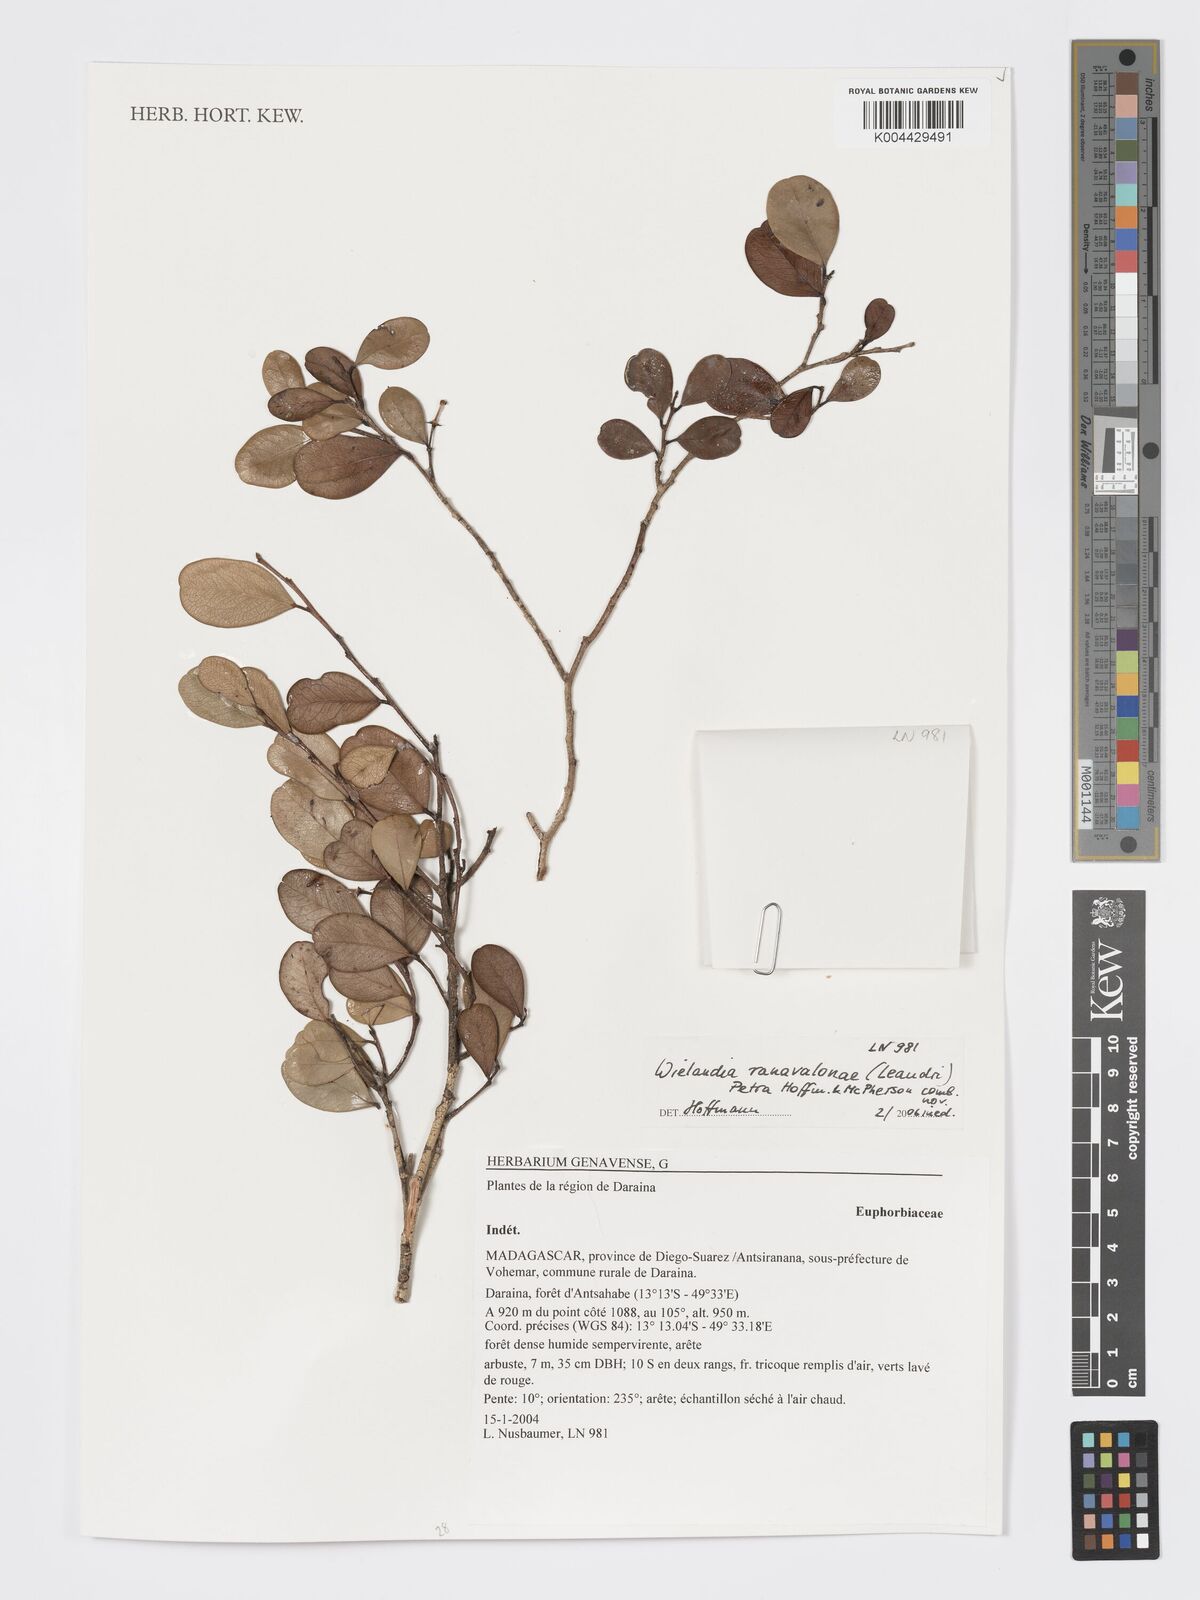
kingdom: Plantae
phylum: Tracheophyta
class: Magnoliopsida
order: Malpighiales
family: Phyllanthaceae
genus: Wielandia
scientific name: Wielandia ranavalonae
